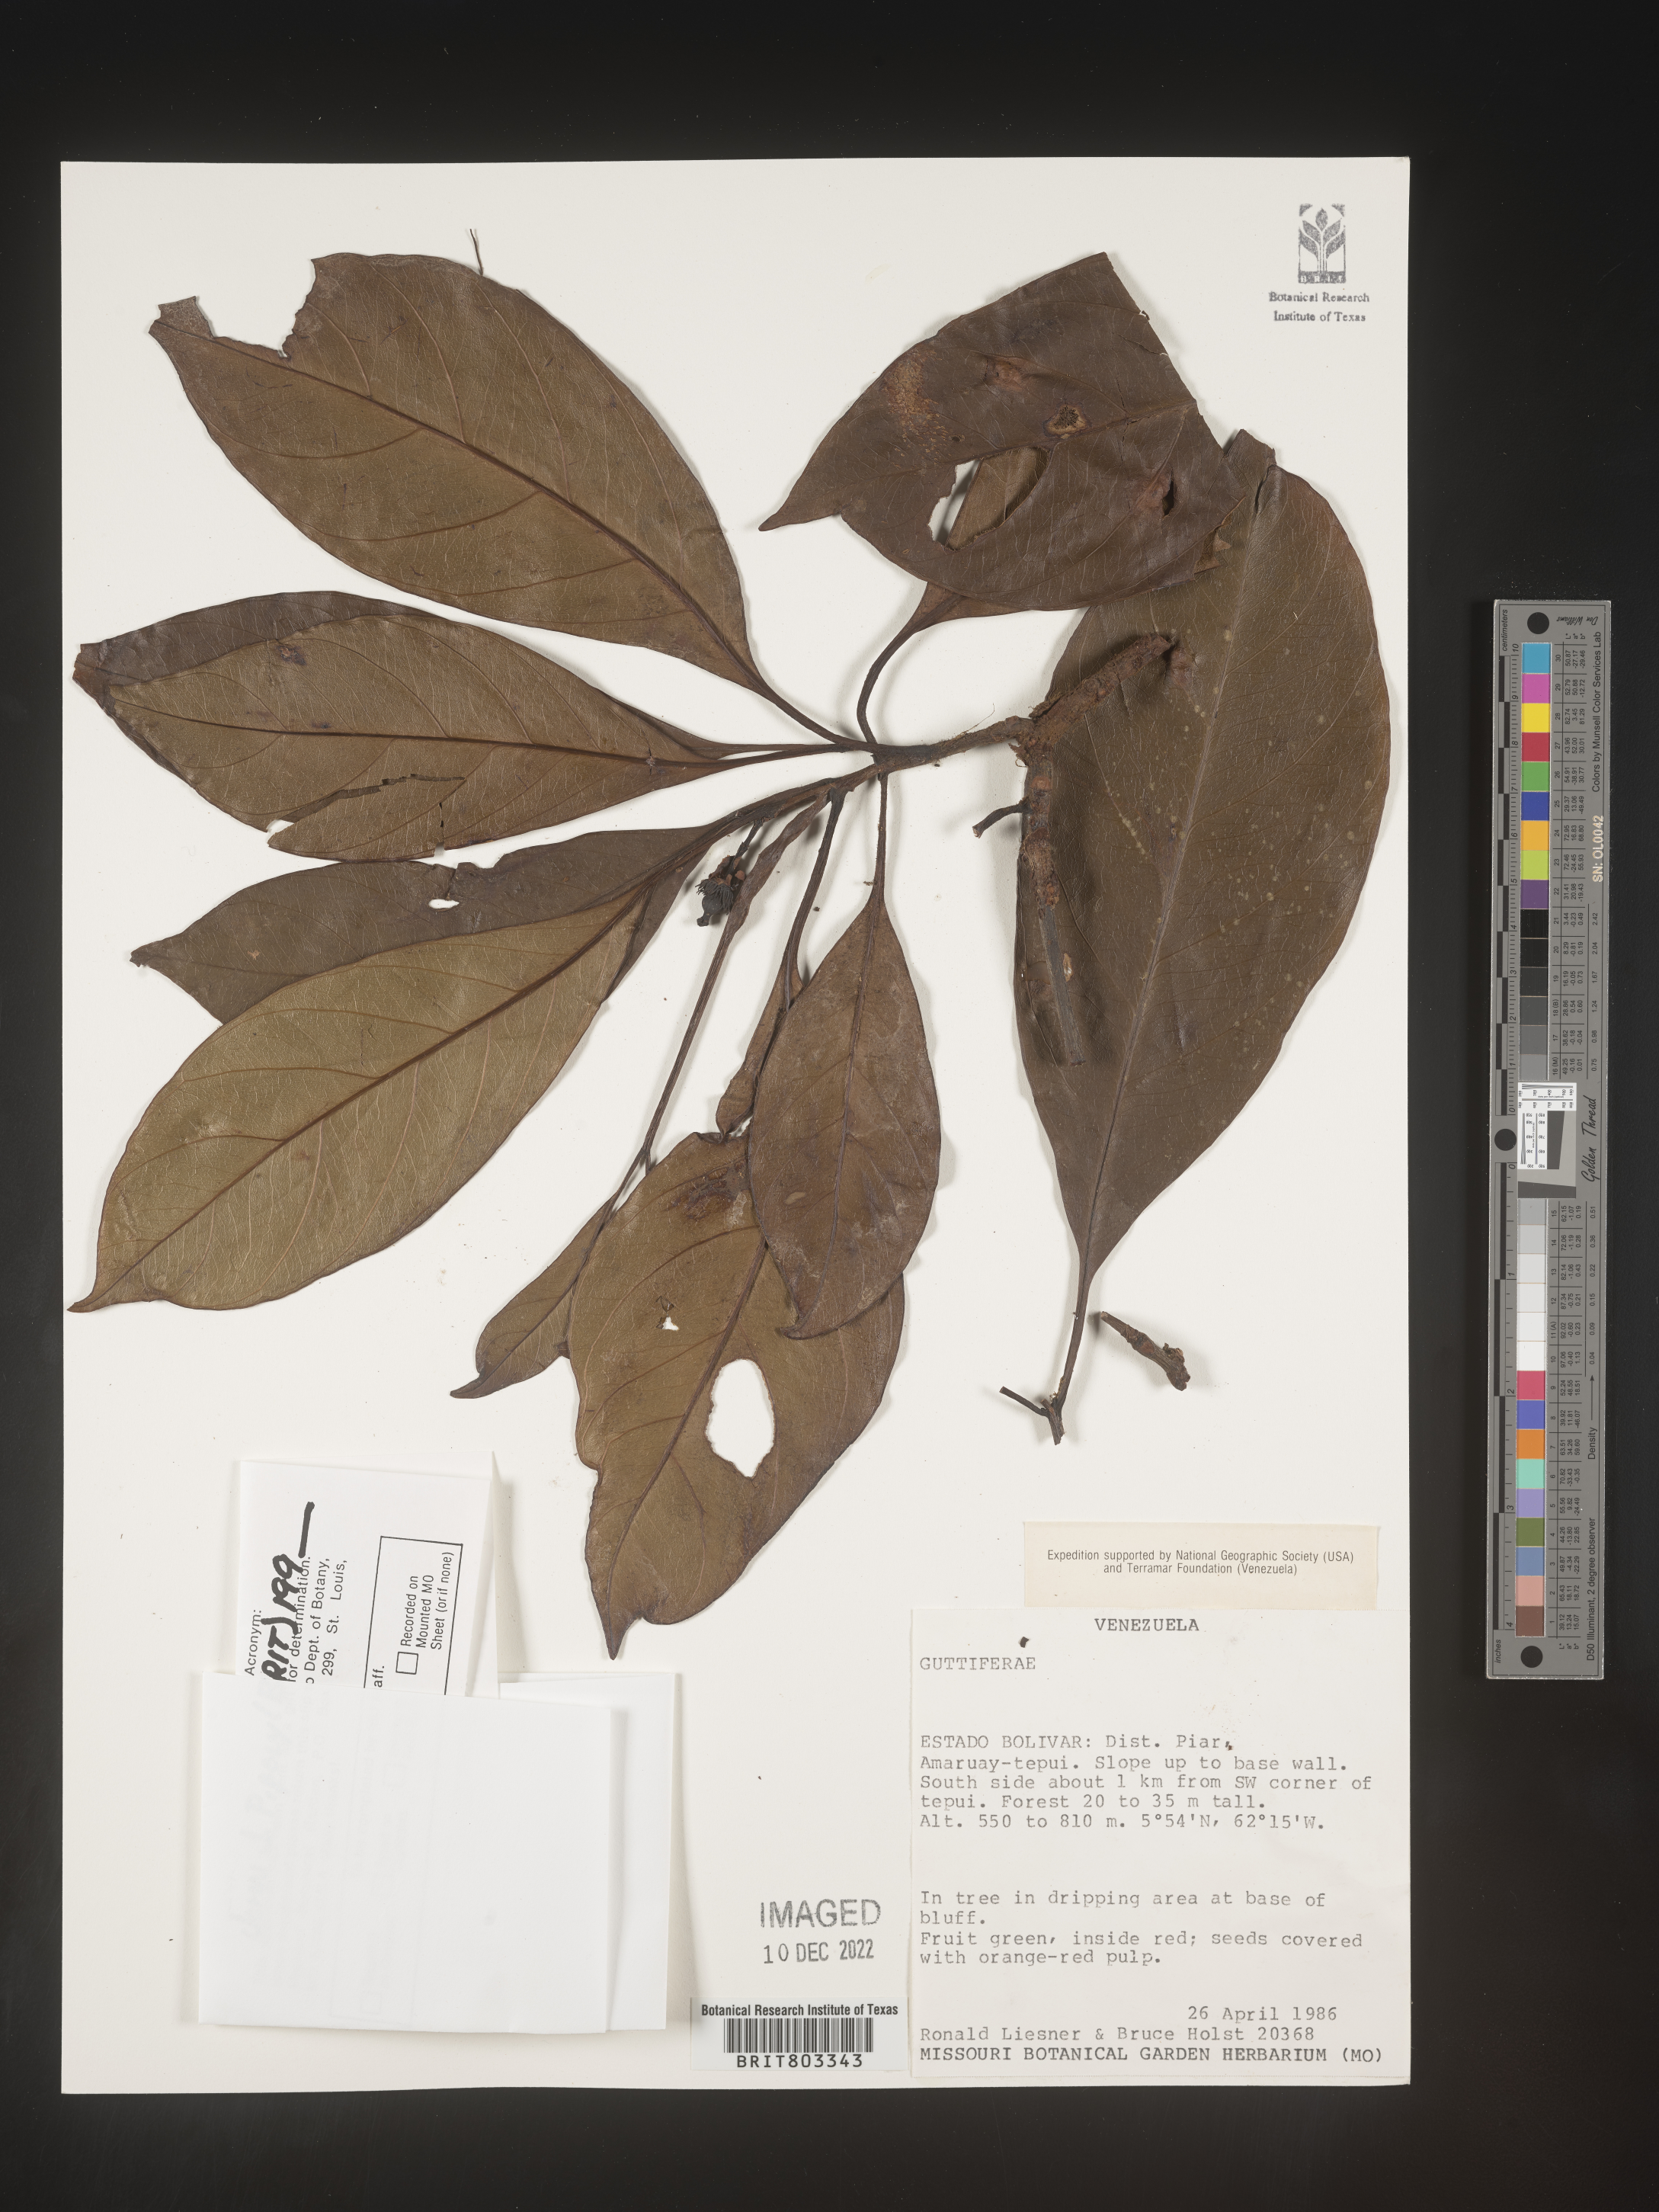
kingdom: Plantae
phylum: Tracheophyta
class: Magnoliopsida
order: Malpighiales
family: Clusiaceae
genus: Tovomita
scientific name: Tovomita
